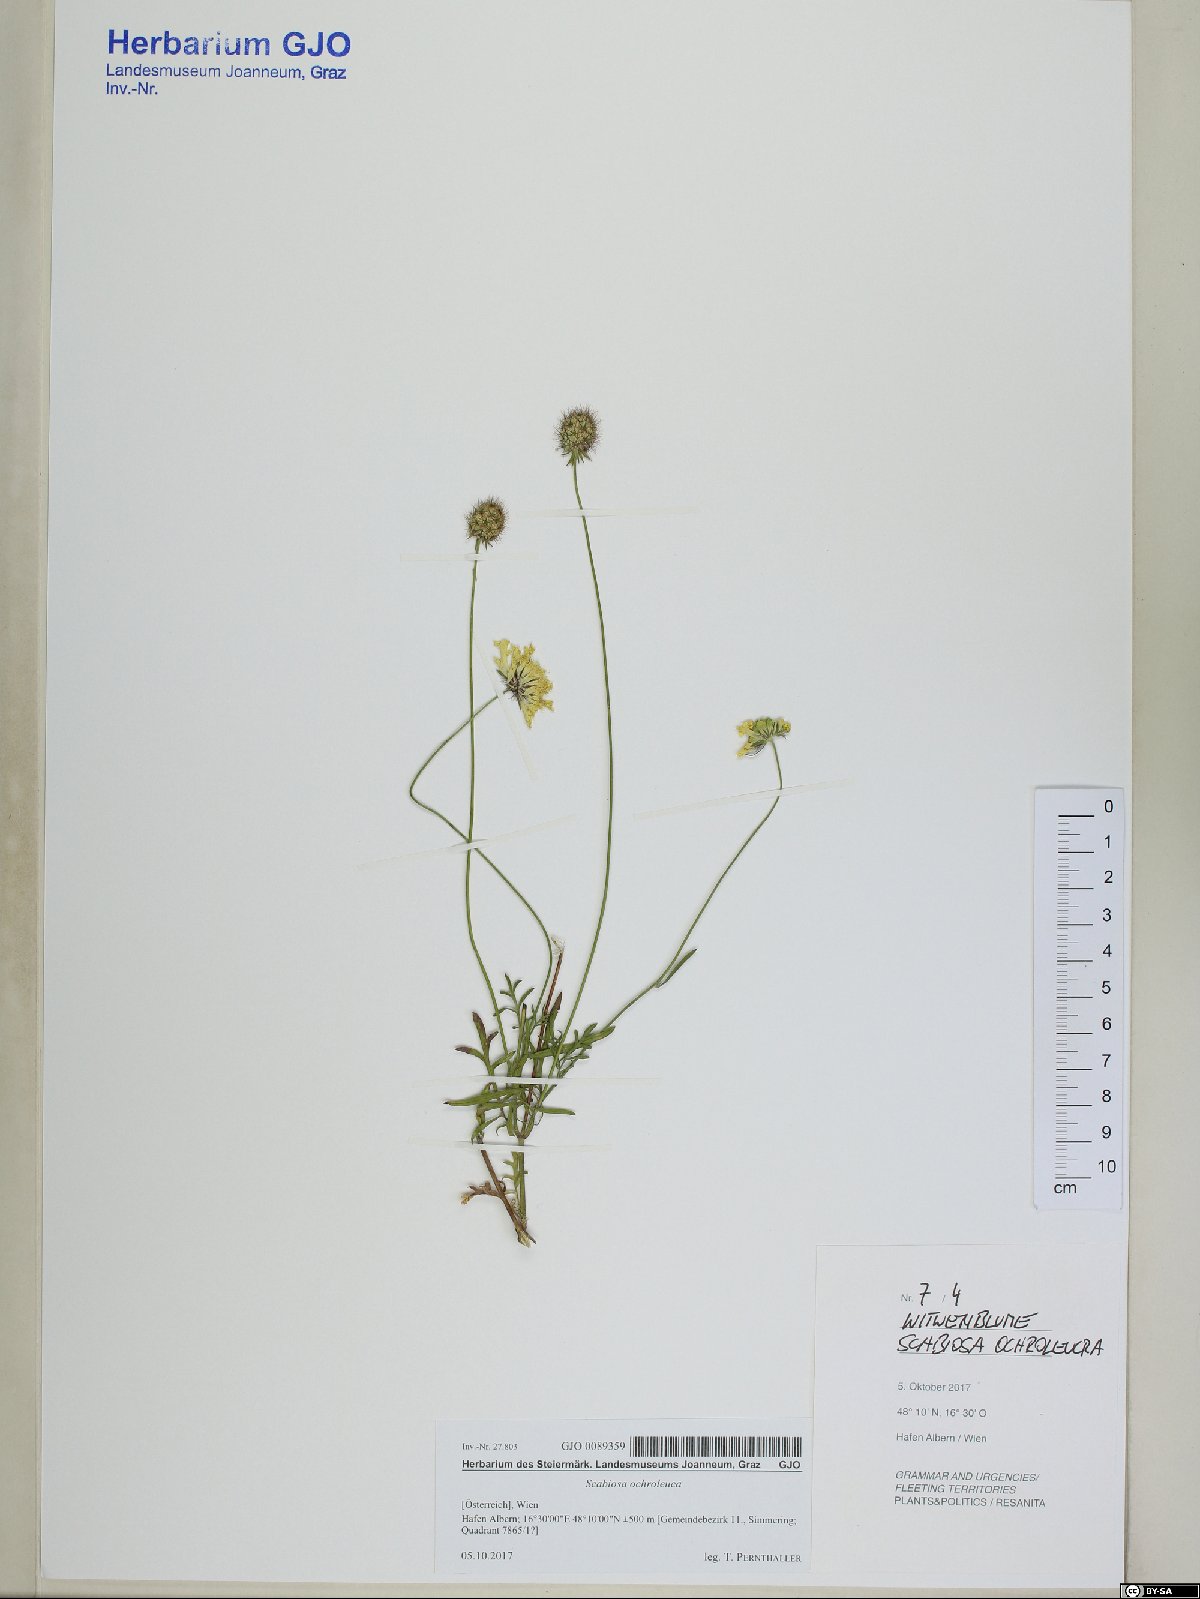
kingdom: Plantae
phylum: Tracheophyta
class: Magnoliopsida
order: Dipsacales
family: Caprifoliaceae
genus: Scabiosa
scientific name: Scabiosa ochroleuca
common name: Cream pincushions
